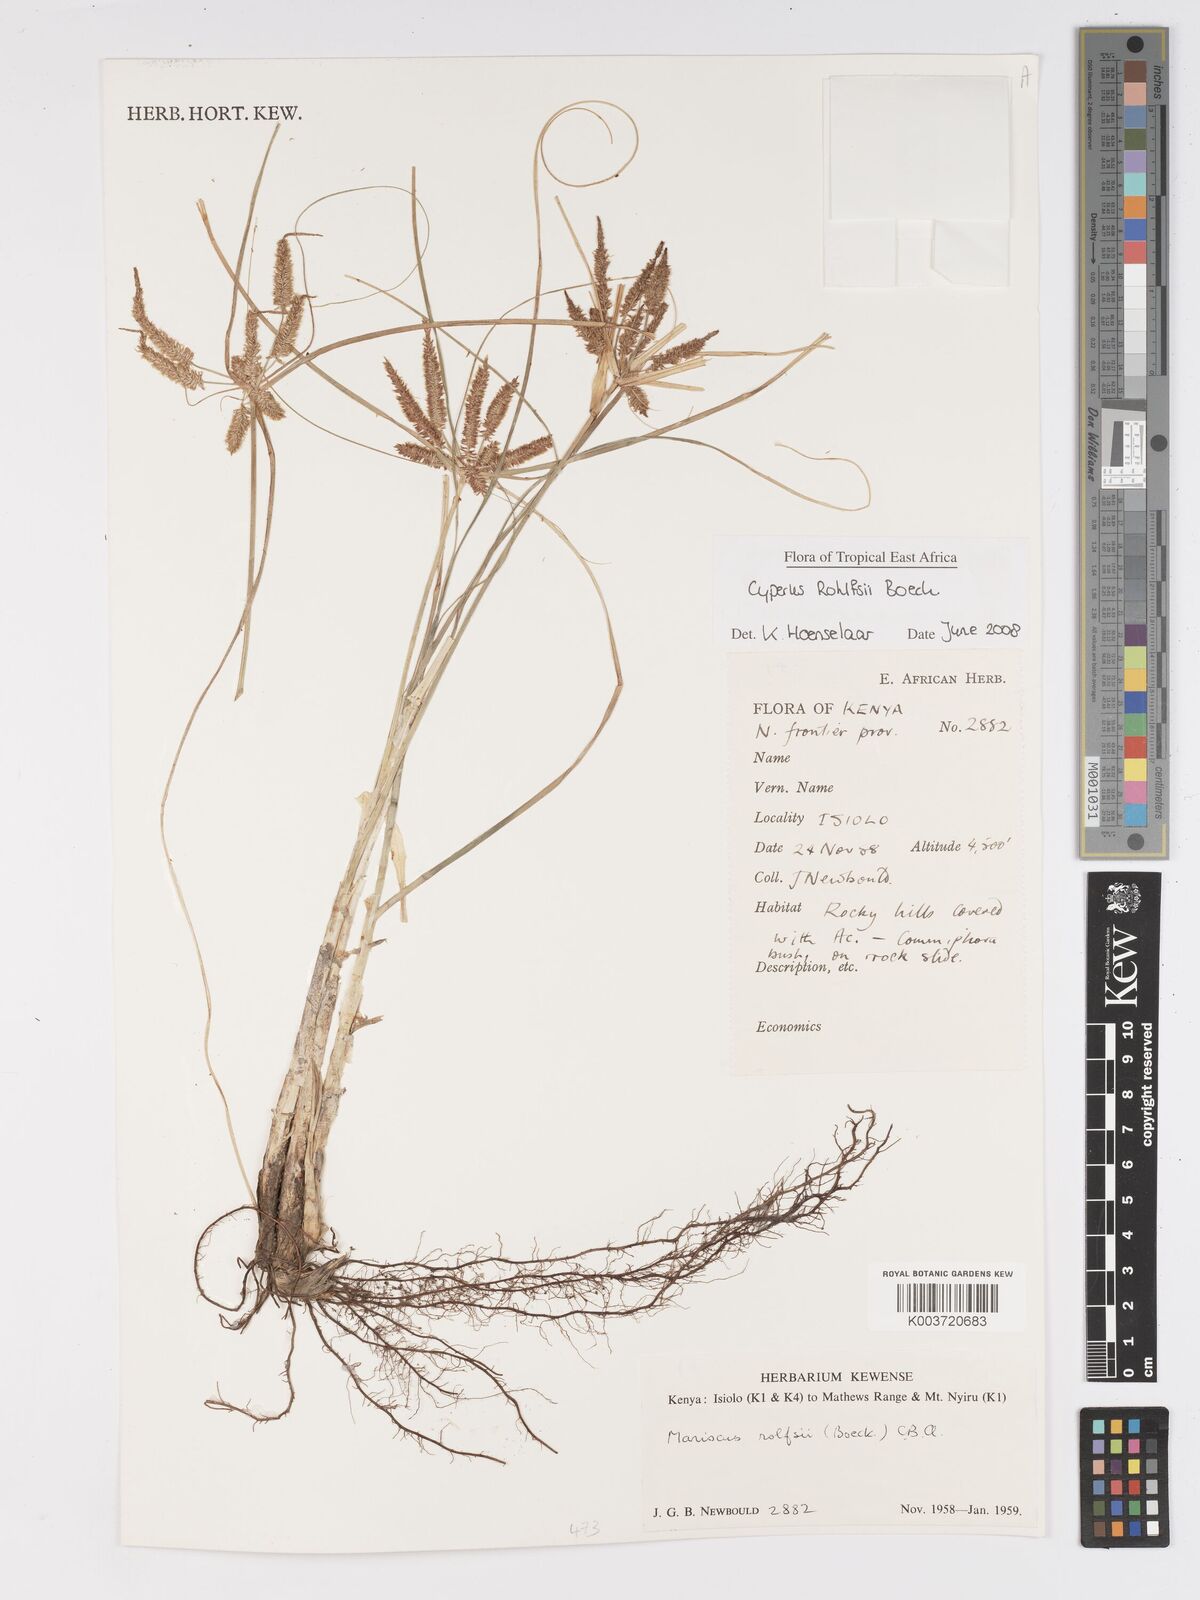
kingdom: Plantae
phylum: Tracheophyta
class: Liliopsida
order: Poales
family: Cyperaceae
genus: Cyperus
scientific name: Cyperus rohlfsii
